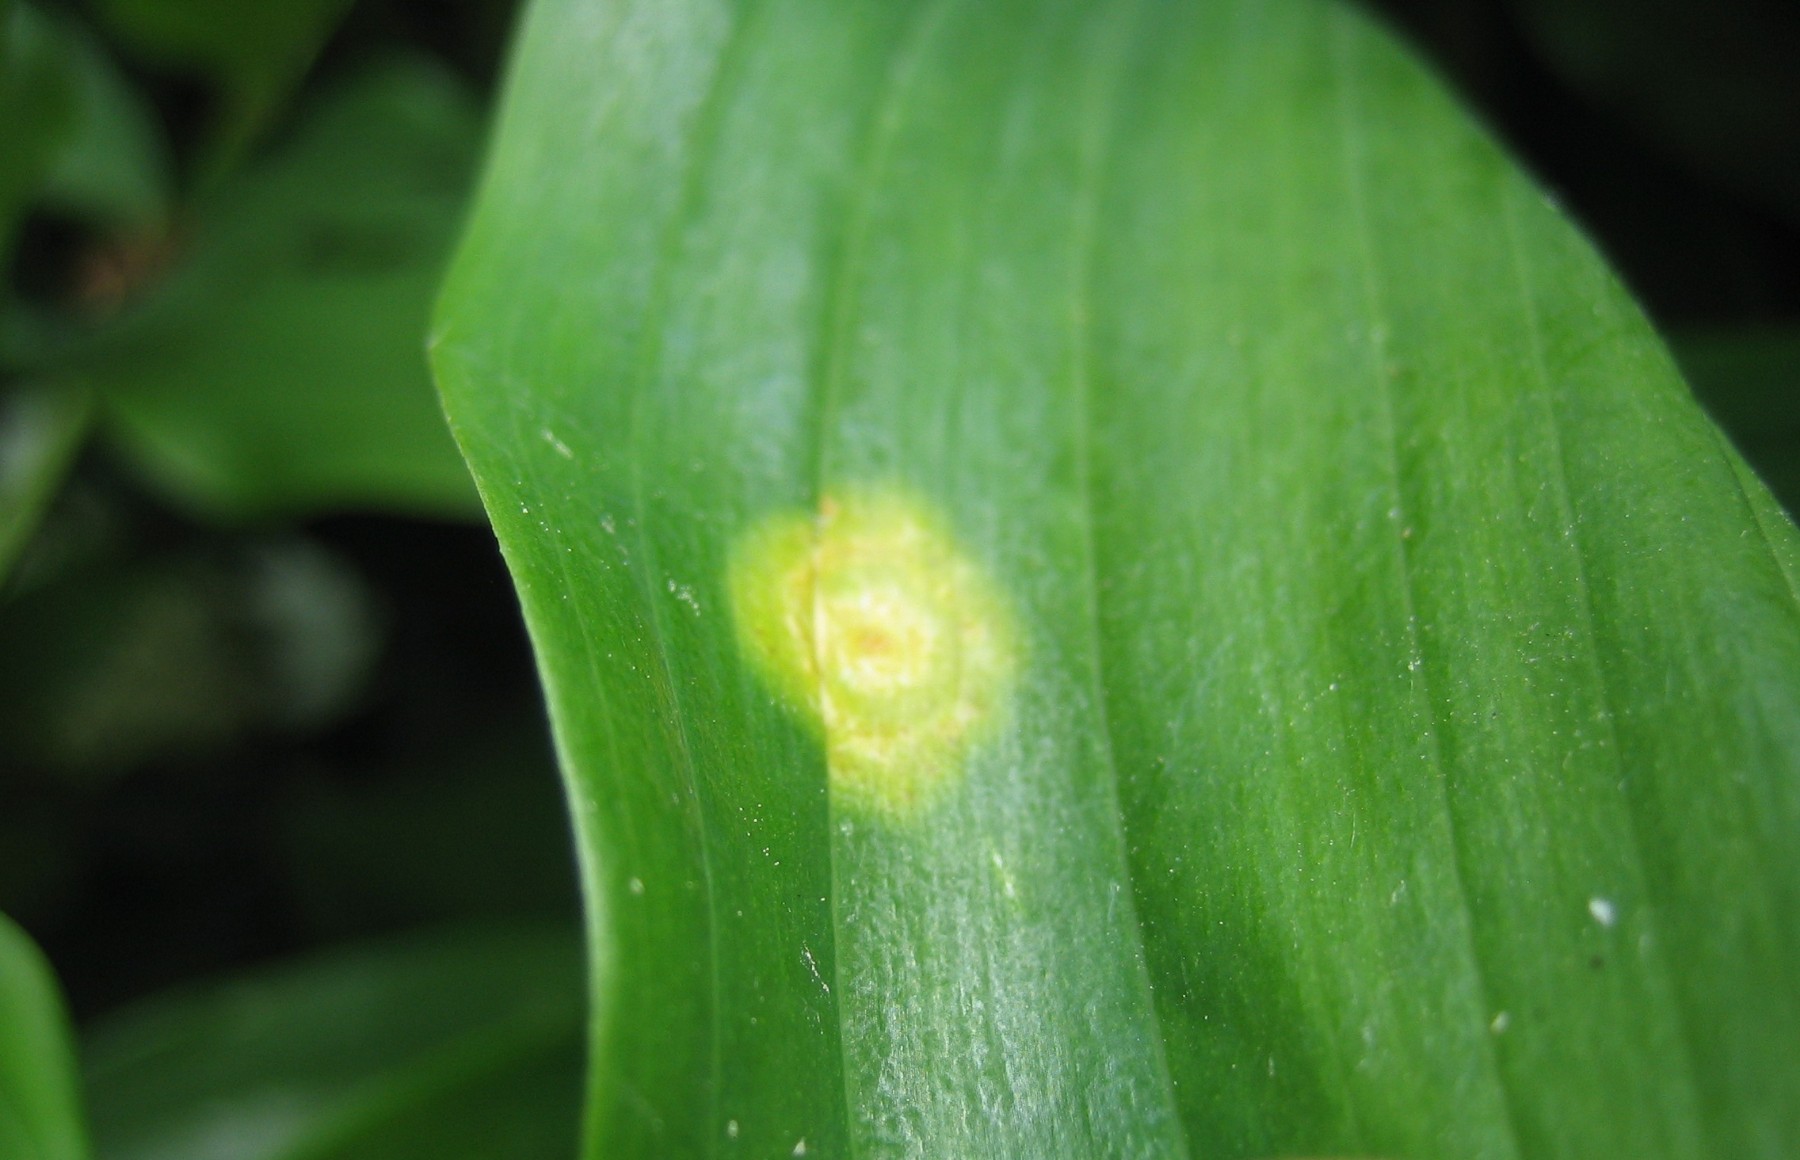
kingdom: Fungi
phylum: Basidiomycota
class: Pucciniomycetes
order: Pucciniales
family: Pucciniaceae
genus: Puccinia
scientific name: Puccinia sessilis
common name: Arum rust
